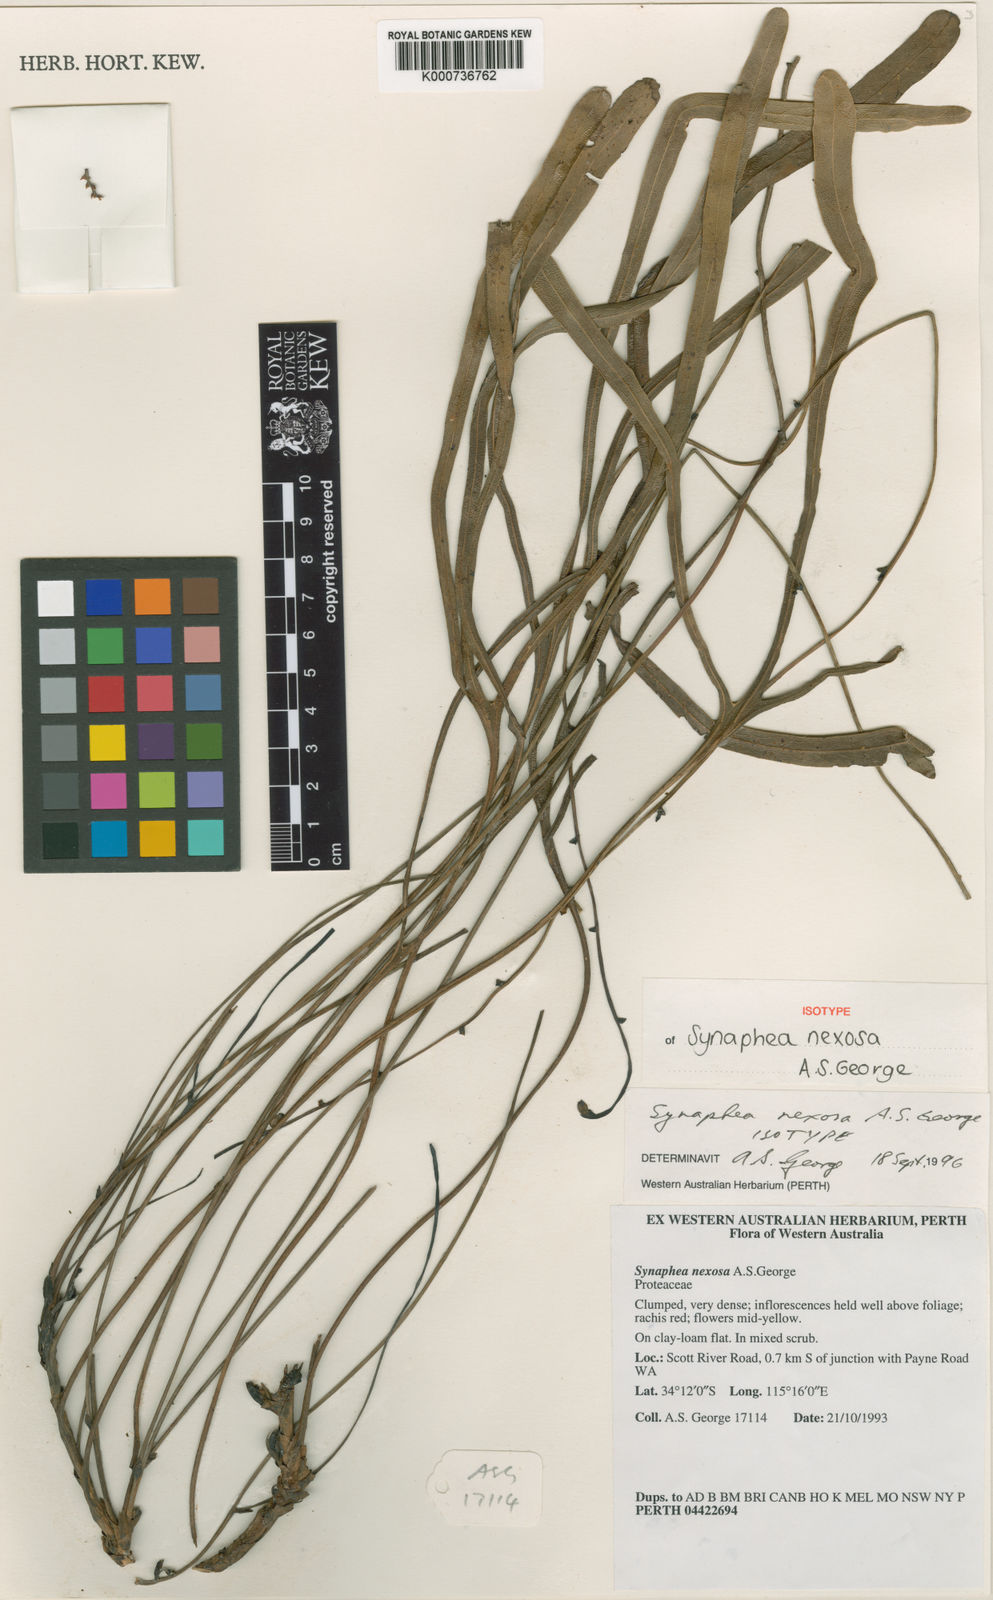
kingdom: Plantae
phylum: Tracheophyta
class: Magnoliopsida
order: Proteales
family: Proteaceae
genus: Synaphea
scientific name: Synaphea nexosa
